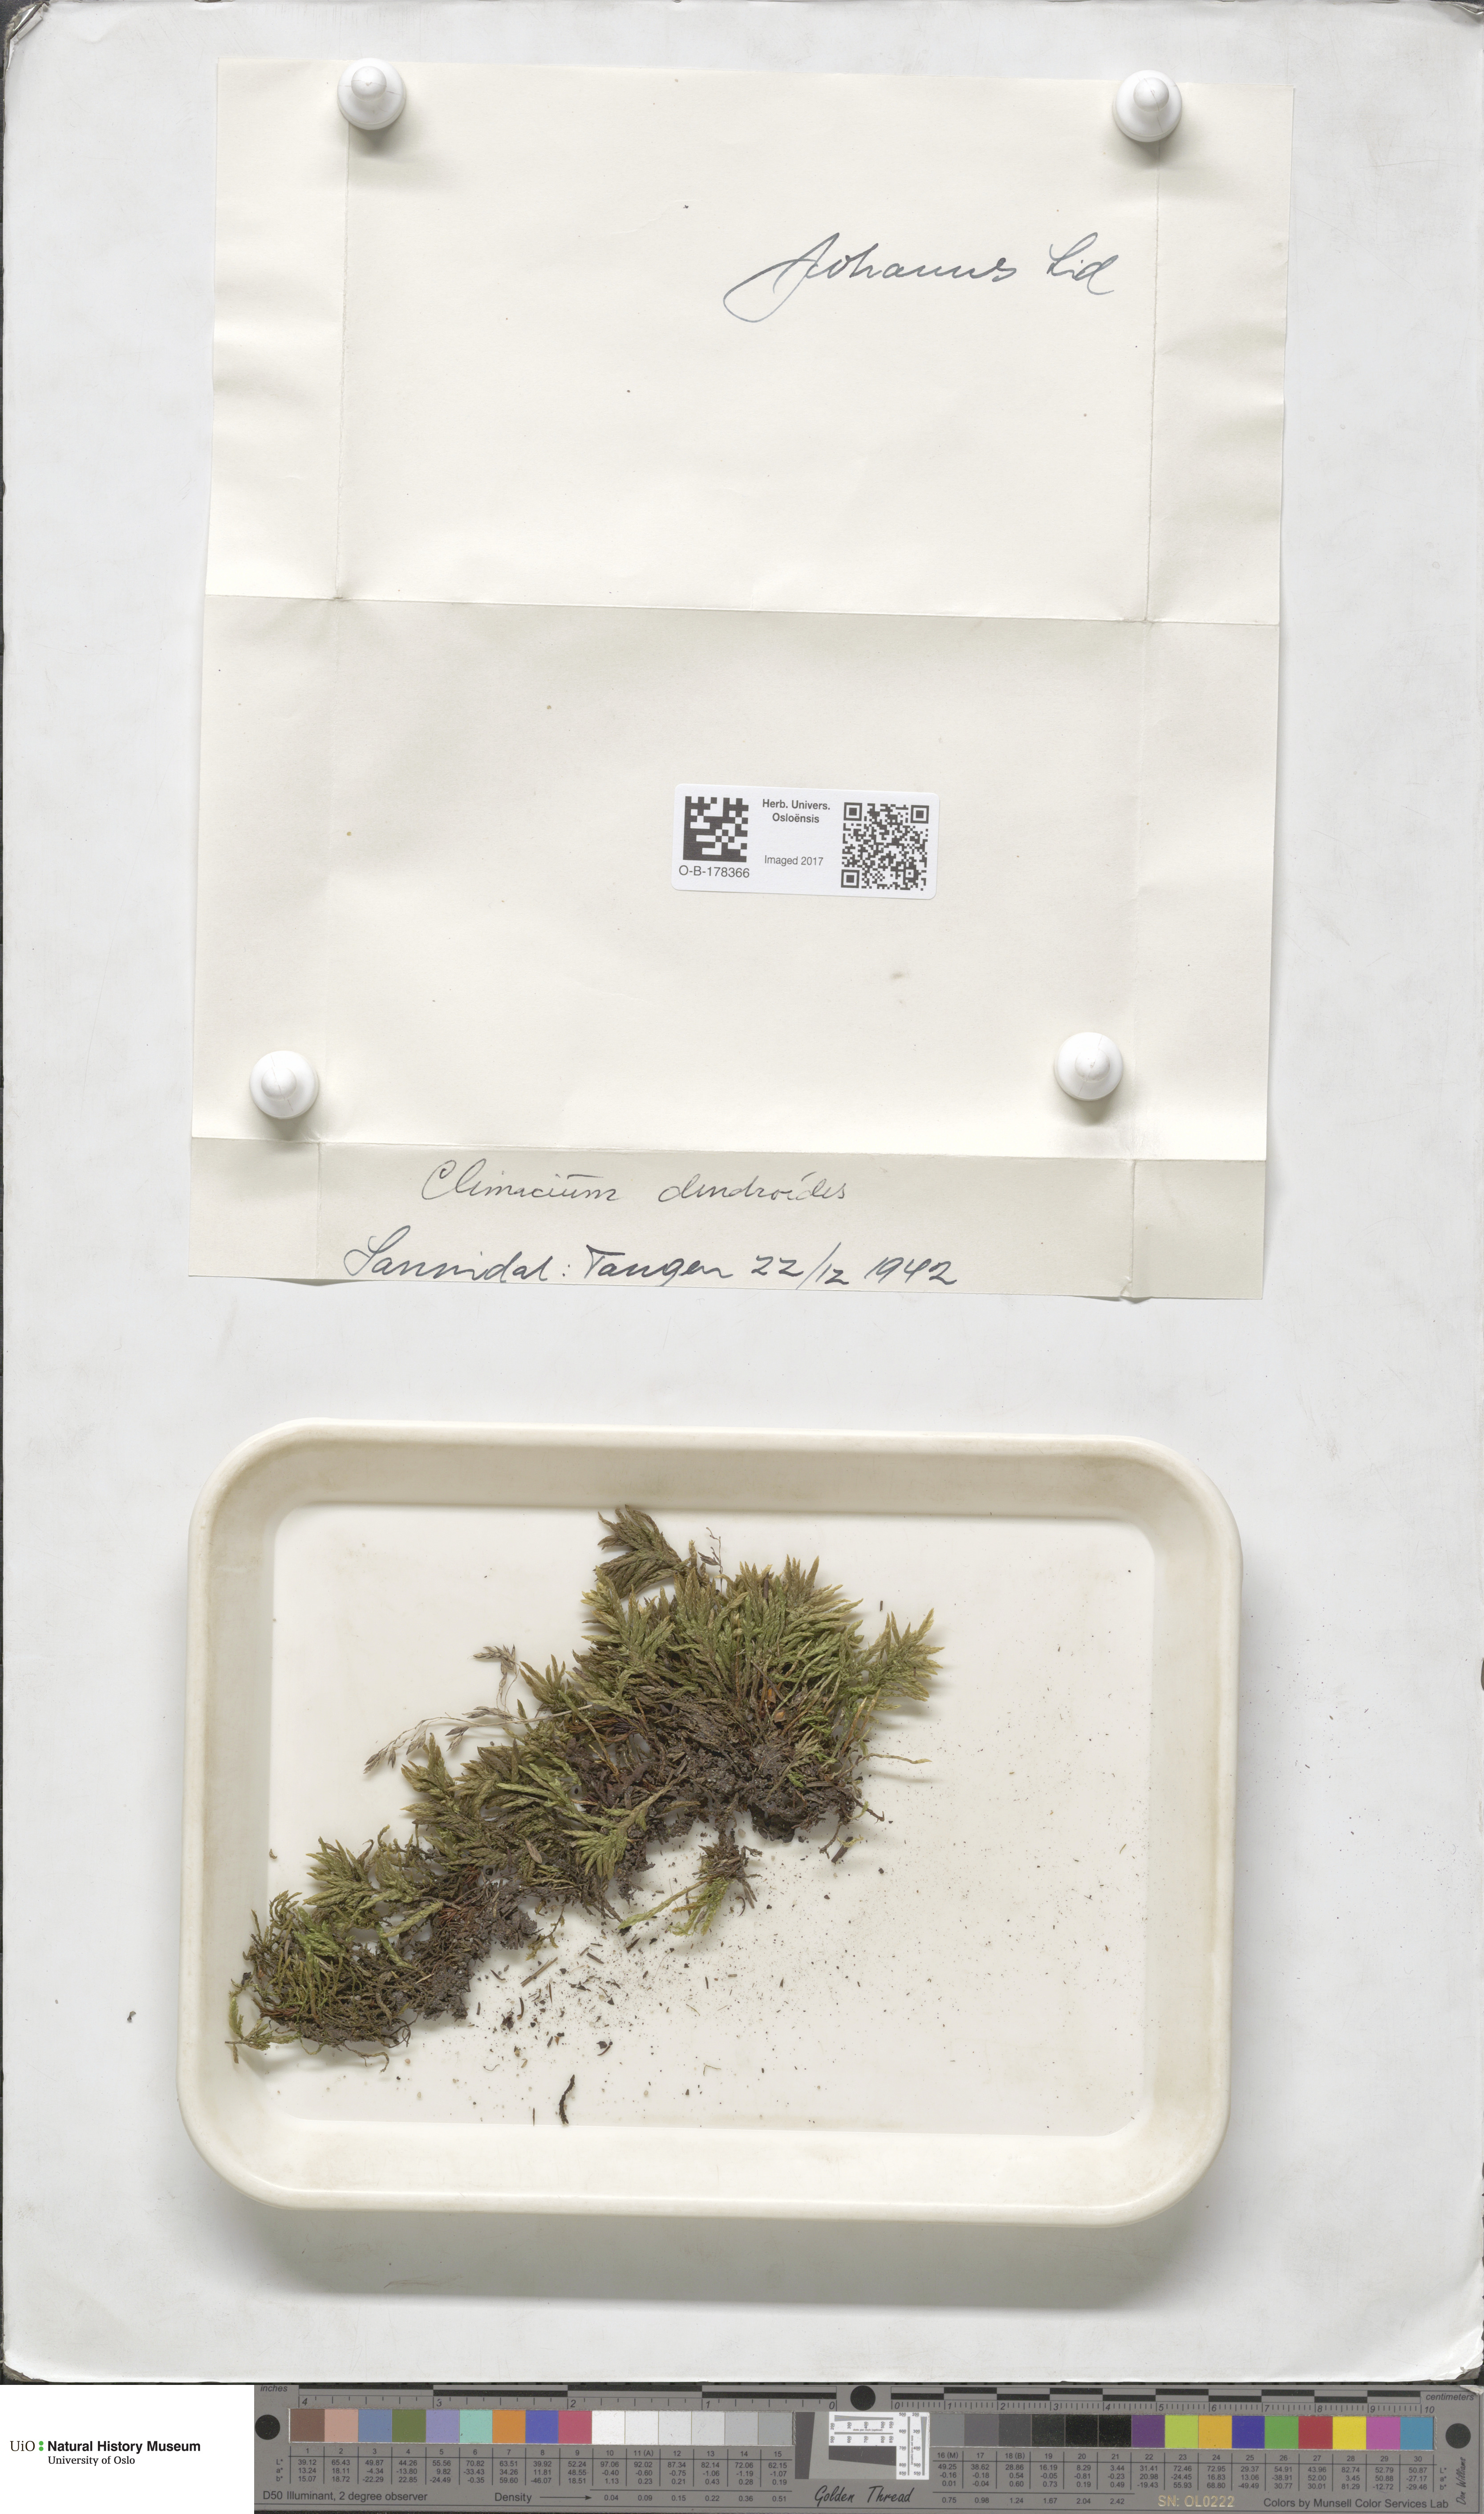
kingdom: Plantae
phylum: Bryophyta
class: Bryopsida
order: Hypnales
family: Climaciaceae
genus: Climacium
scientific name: Climacium dendroides
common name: Northern tree moss
